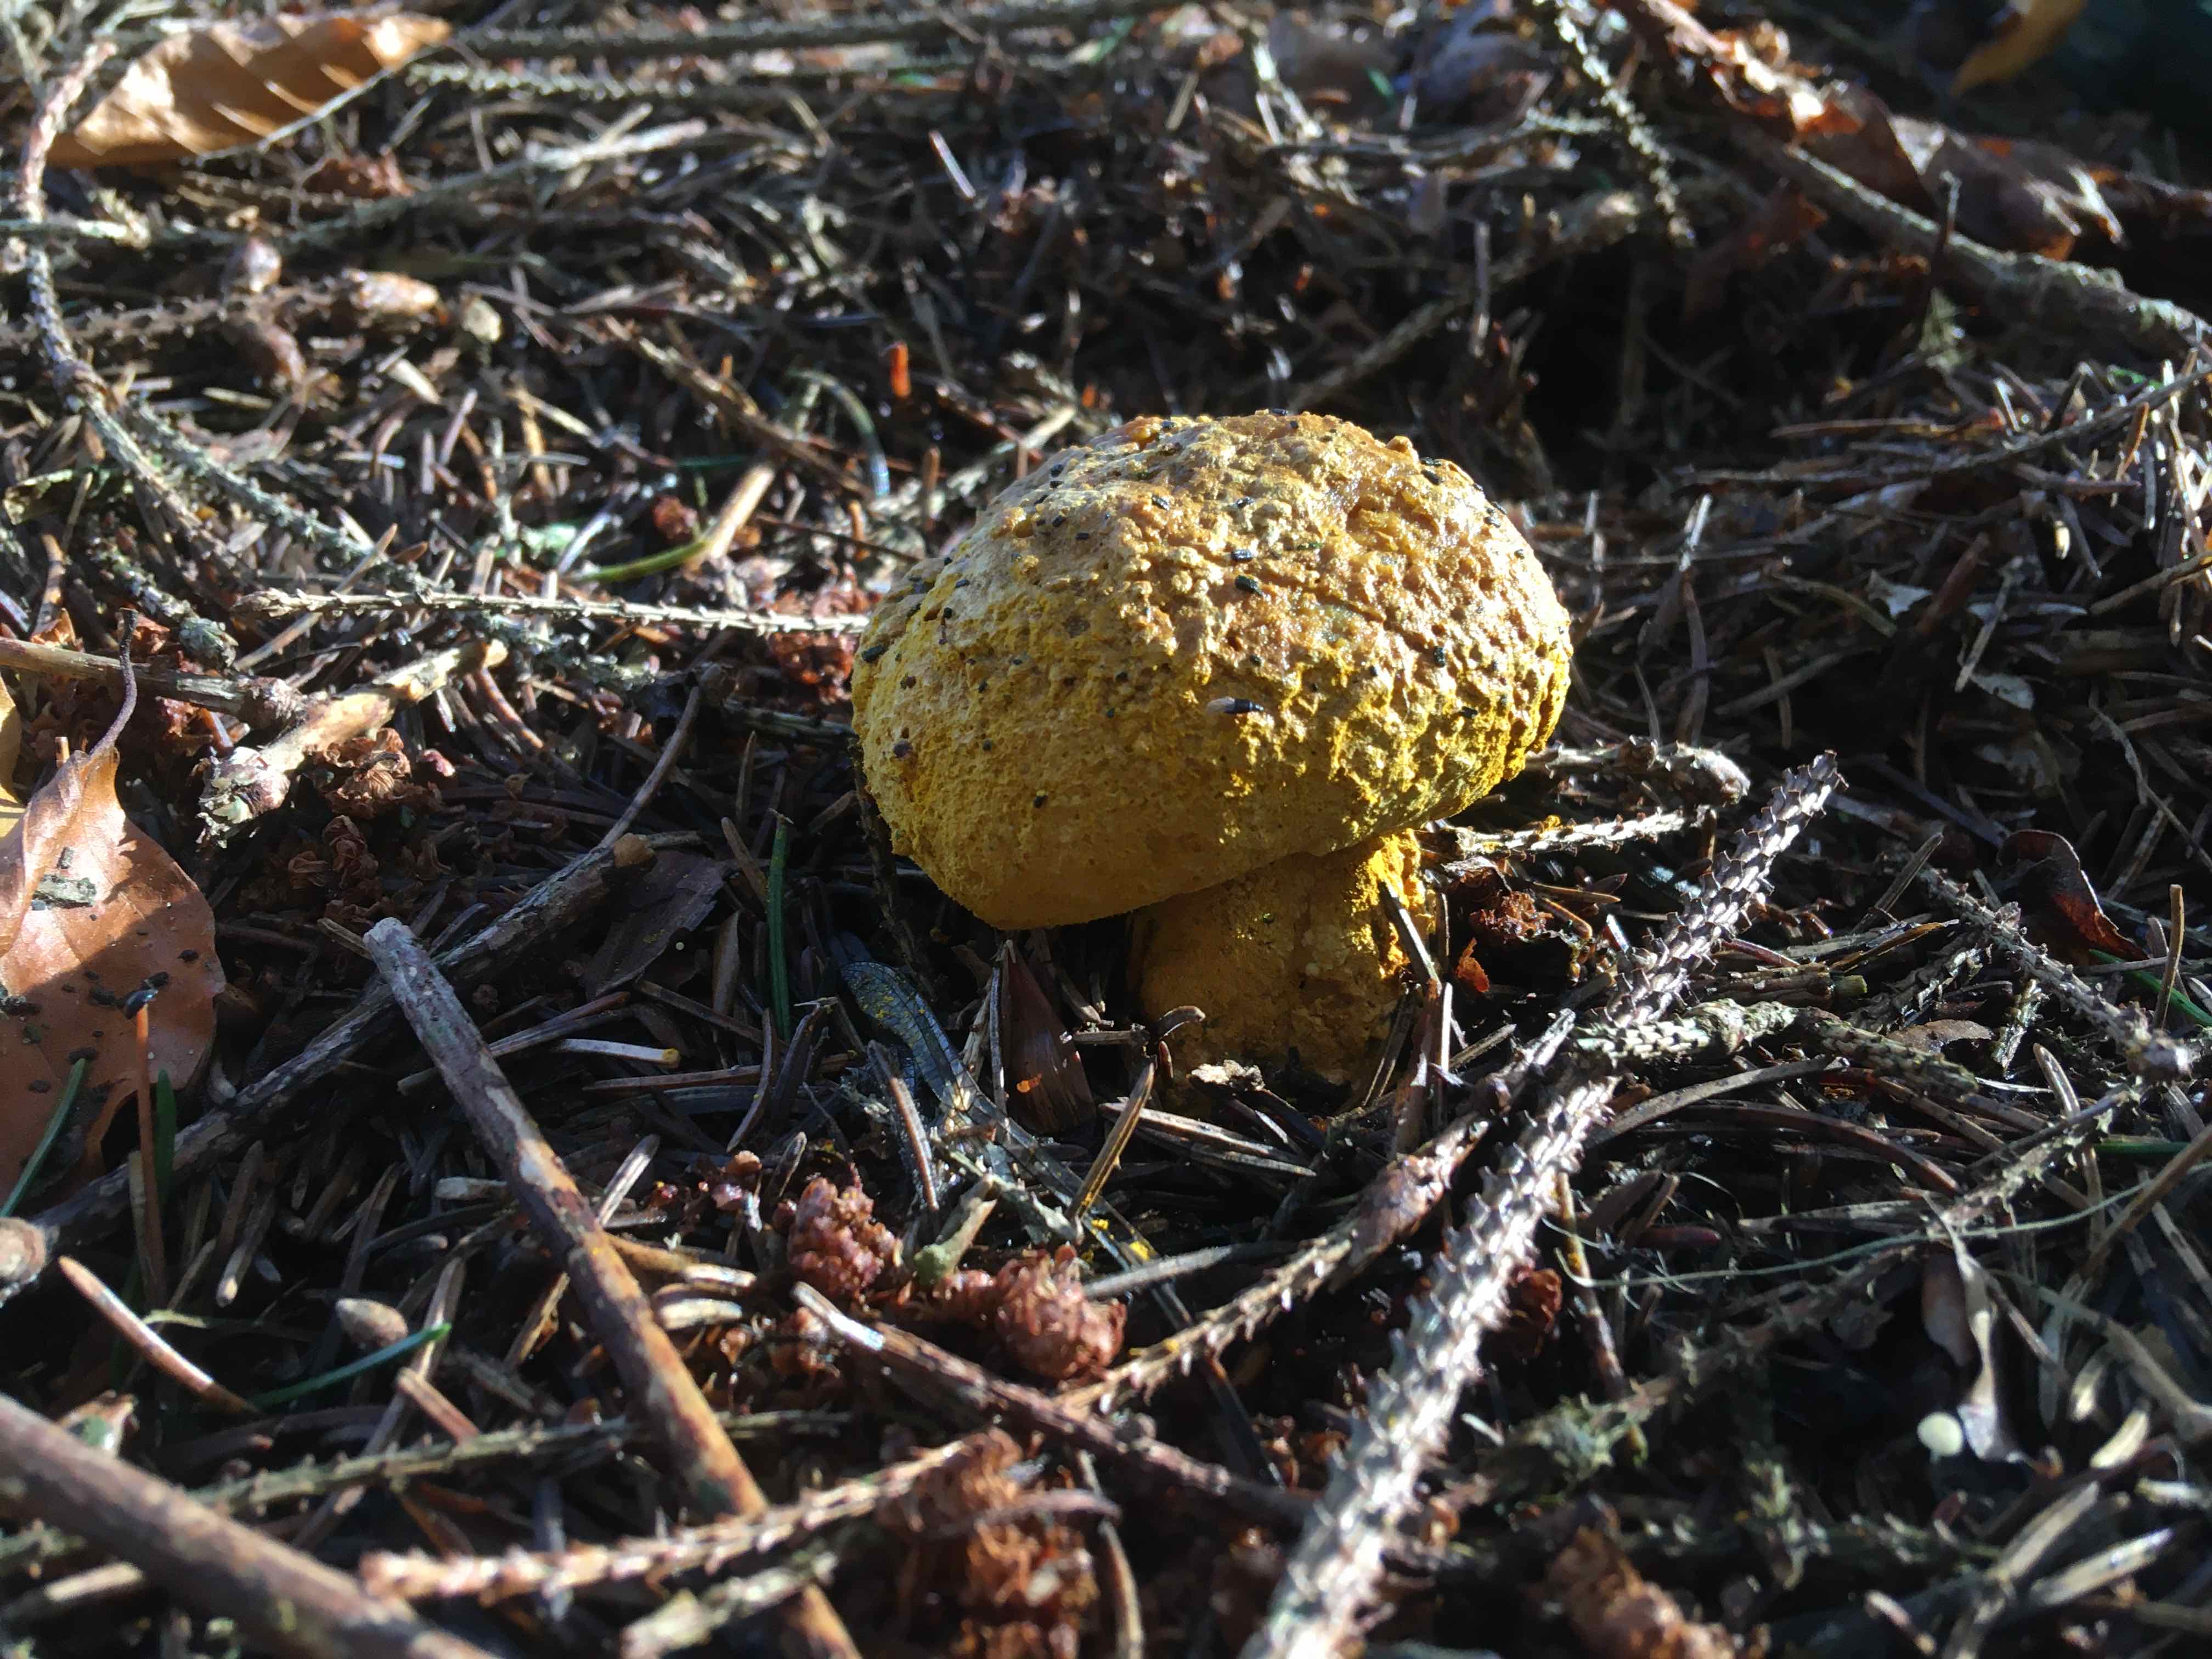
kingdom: Fungi
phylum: Ascomycota
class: Sordariomycetes
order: Hypocreales
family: Hypocreaceae
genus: Hypomyces
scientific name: Hypomyces
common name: snylteskorpe
